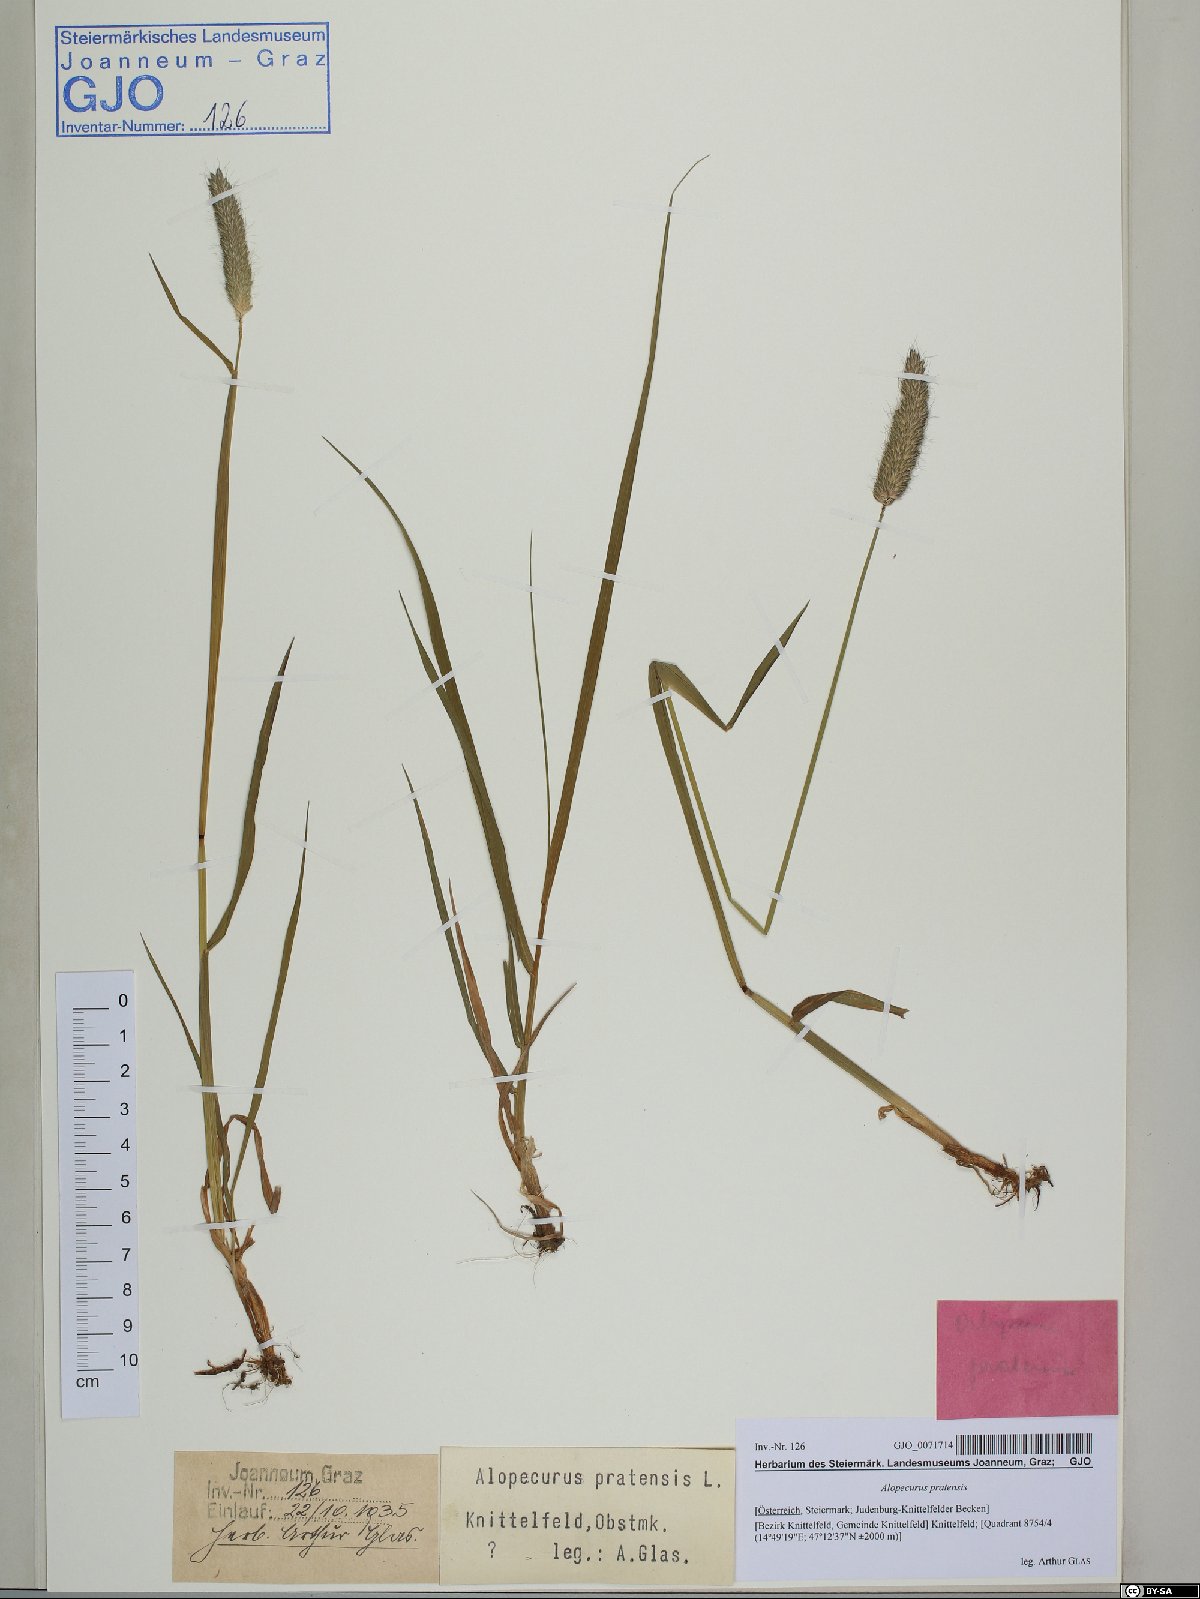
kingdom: Plantae
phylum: Tracheophyta
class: Liliopsida
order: Poales
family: Poaceae
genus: Alopecurus
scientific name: Alopecurus pratensis
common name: Meadow foxtail
